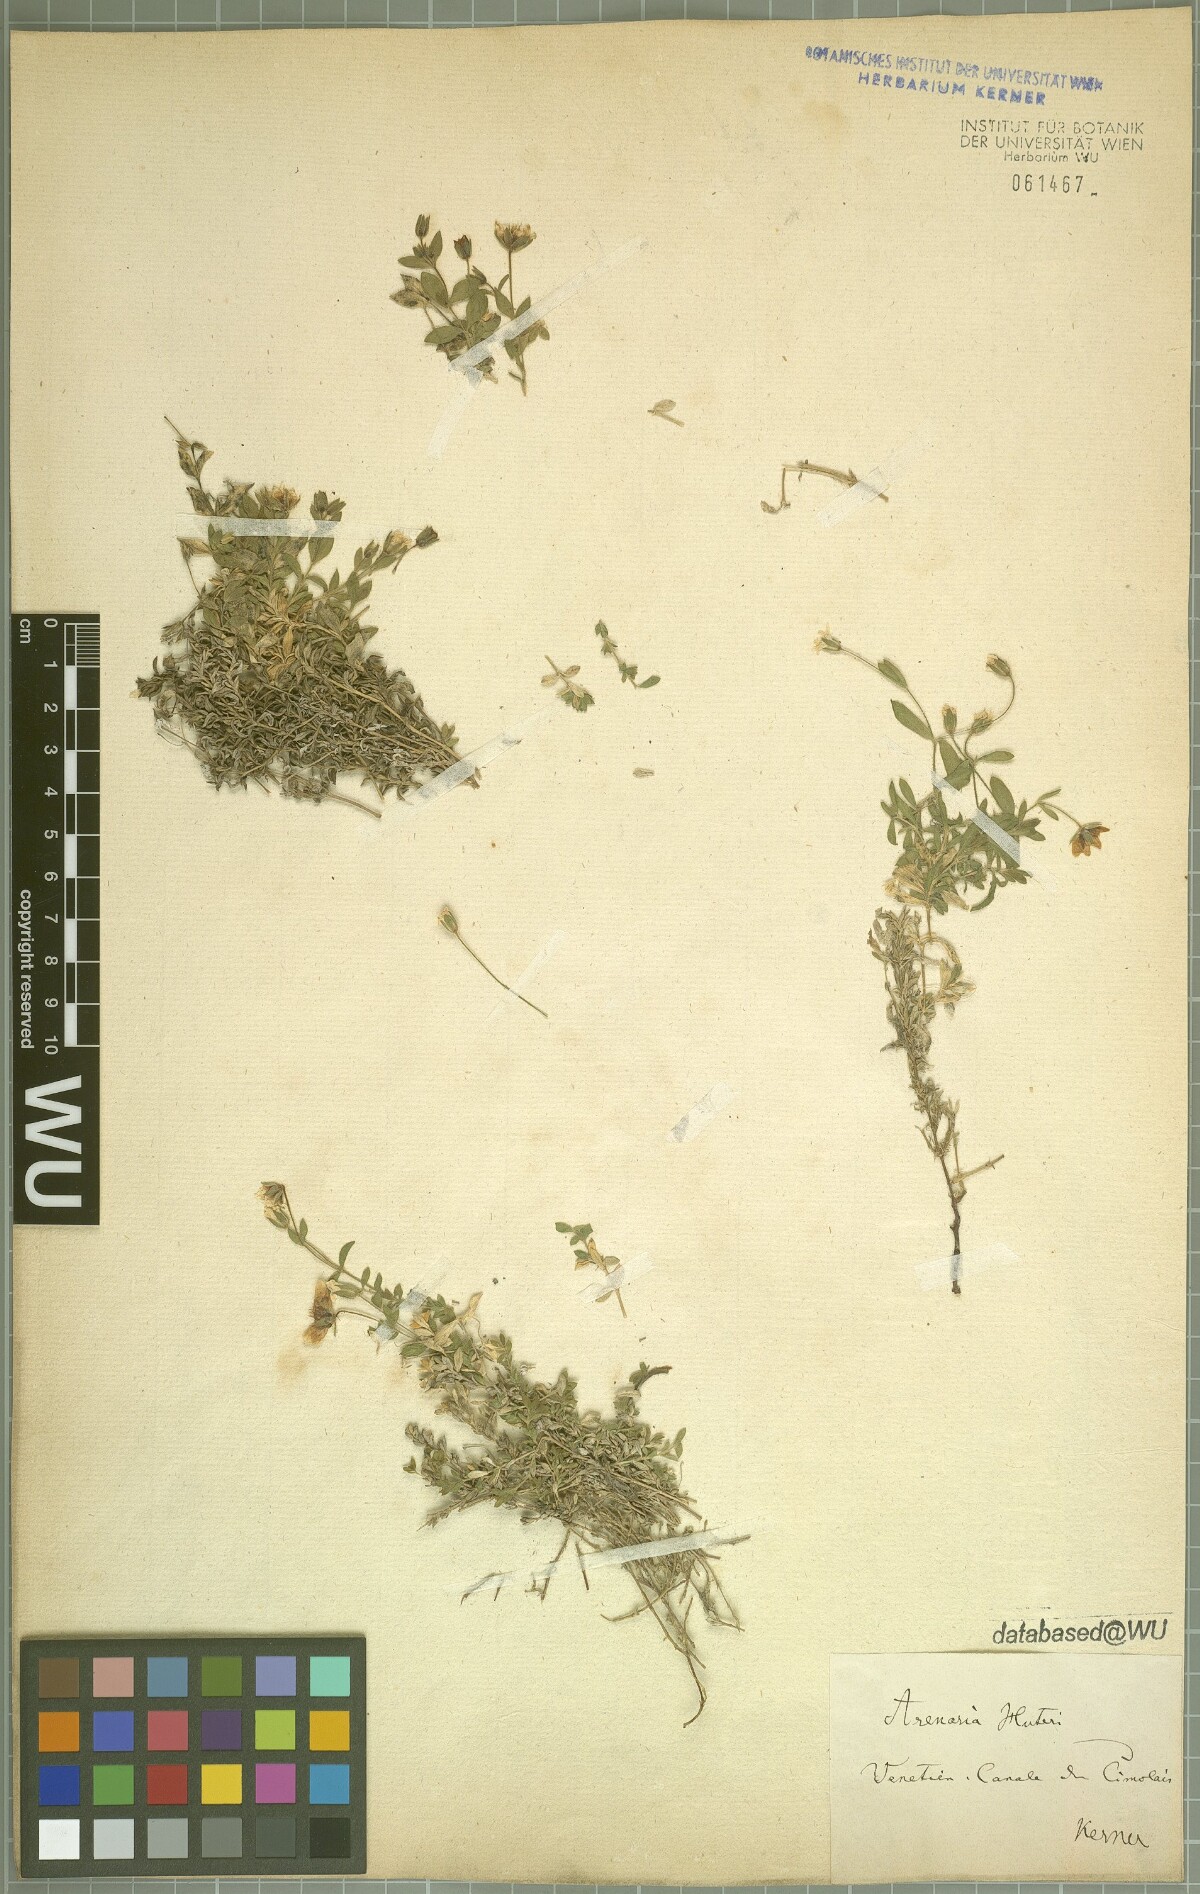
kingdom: Plantae
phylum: Tracheophyta
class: Magnoliopsida
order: Caryophyllales
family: Caryophyllaceae
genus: Arenaria
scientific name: Arenaria huteri
